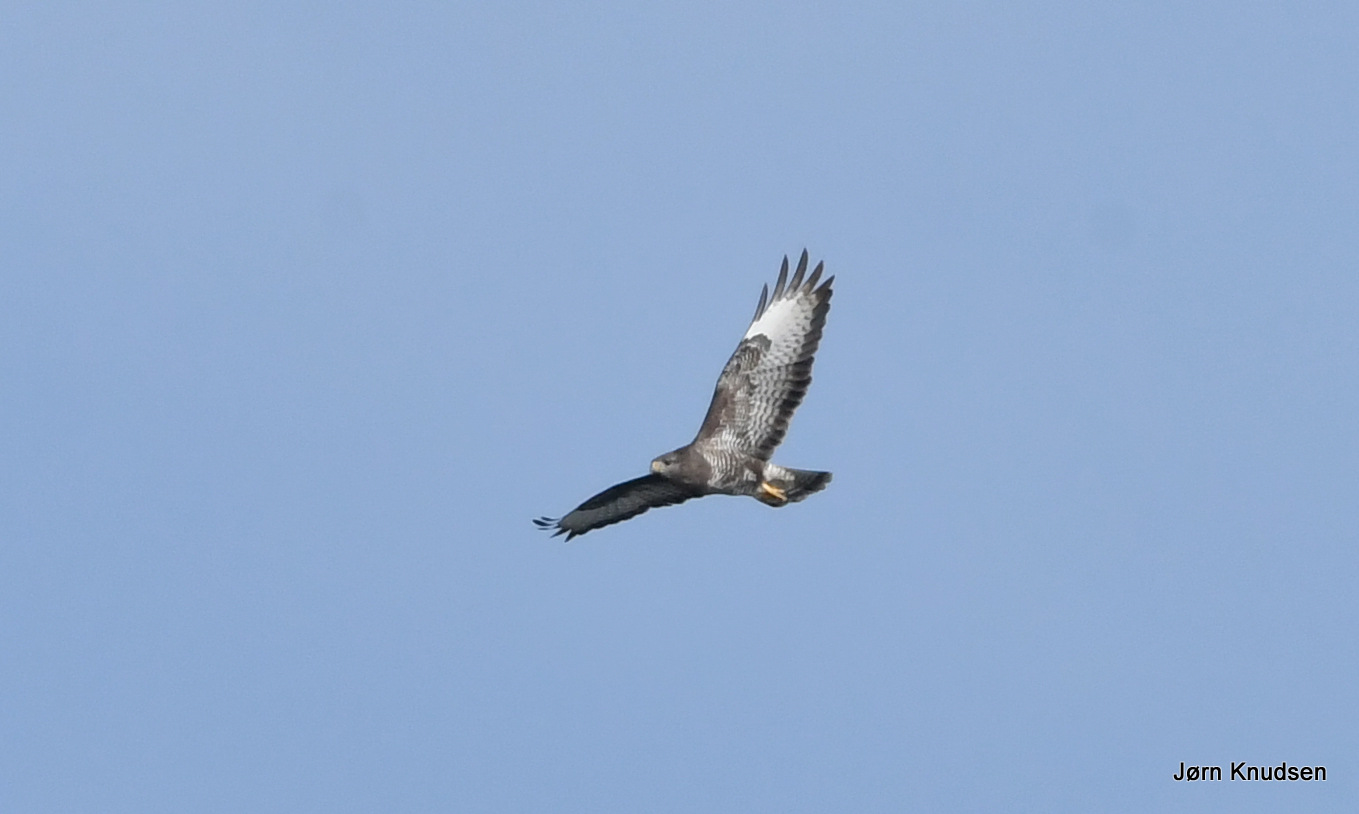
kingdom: Animalia
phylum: Chordata
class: Aves
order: Accipitriformes
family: Accipitridae
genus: Buteo
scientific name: Buteo buteo
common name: Musvåge
